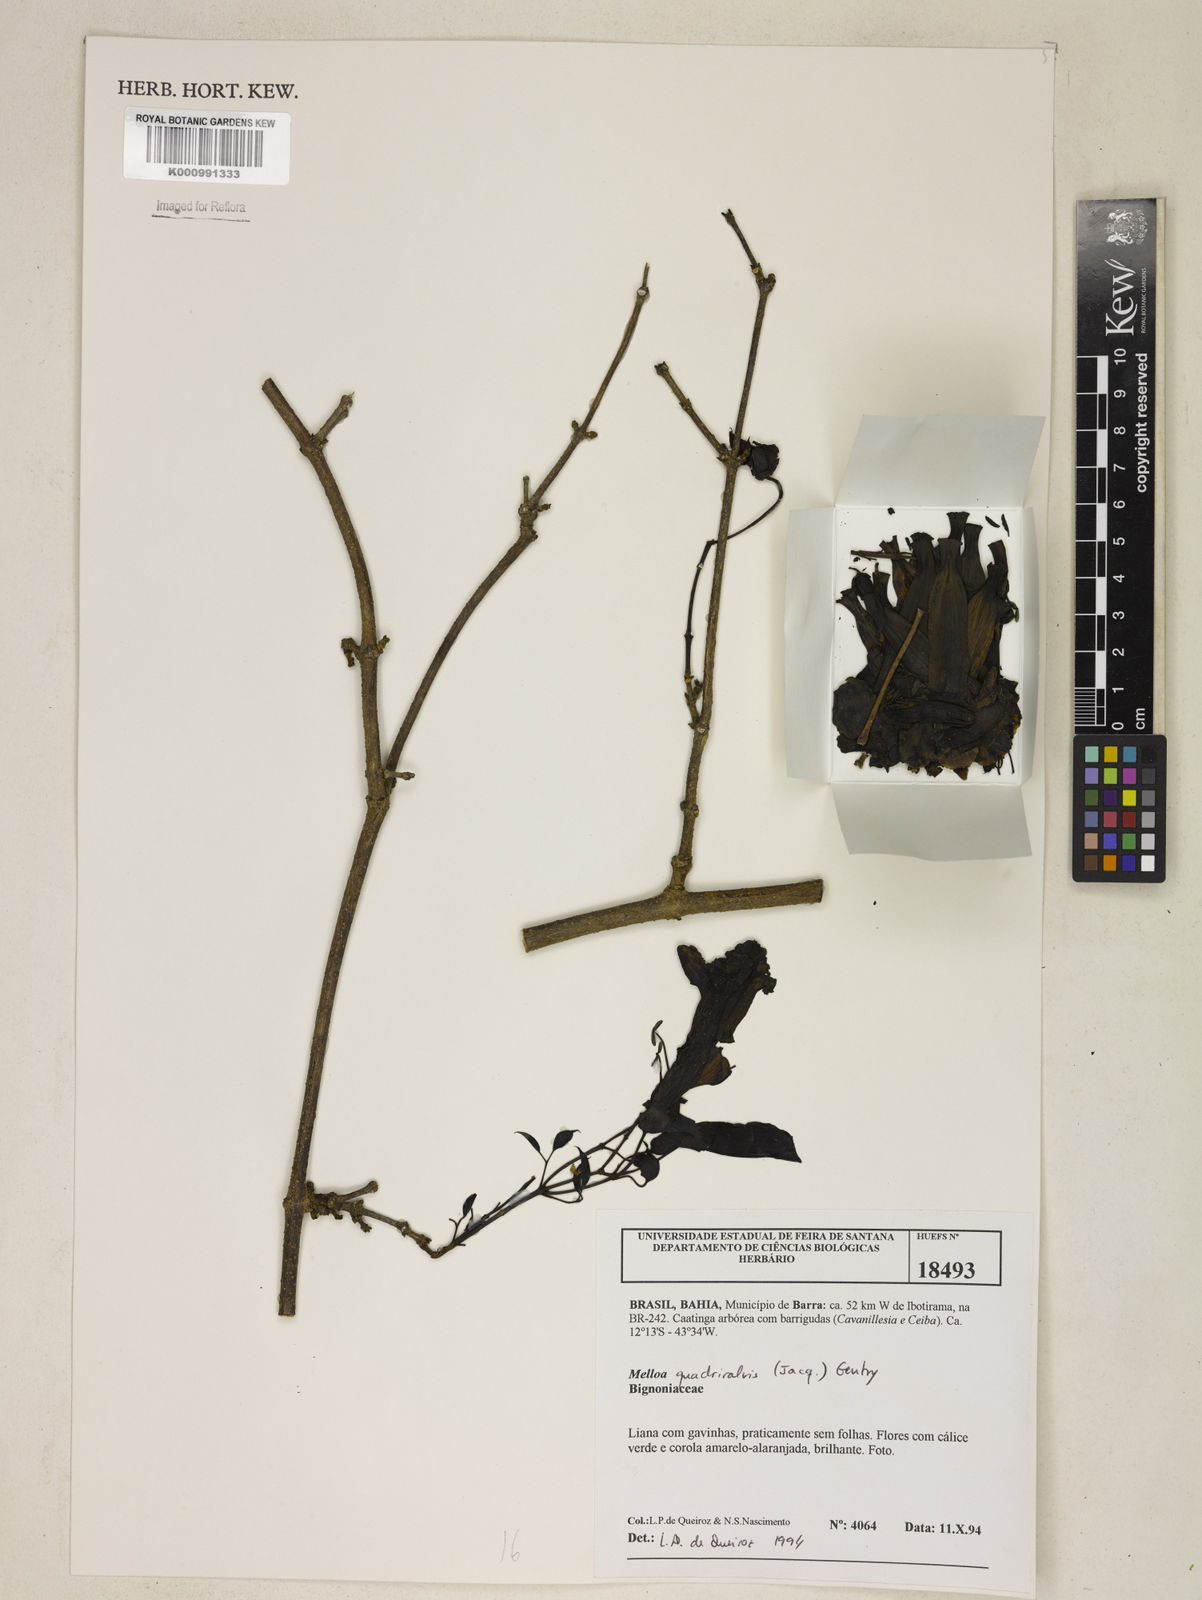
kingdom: Plantae
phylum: Tracheophyta
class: Magnoliopsida
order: Lamiales
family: Bignoniaceae
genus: Dolichandra
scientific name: Dolichandra quadrivalvis
